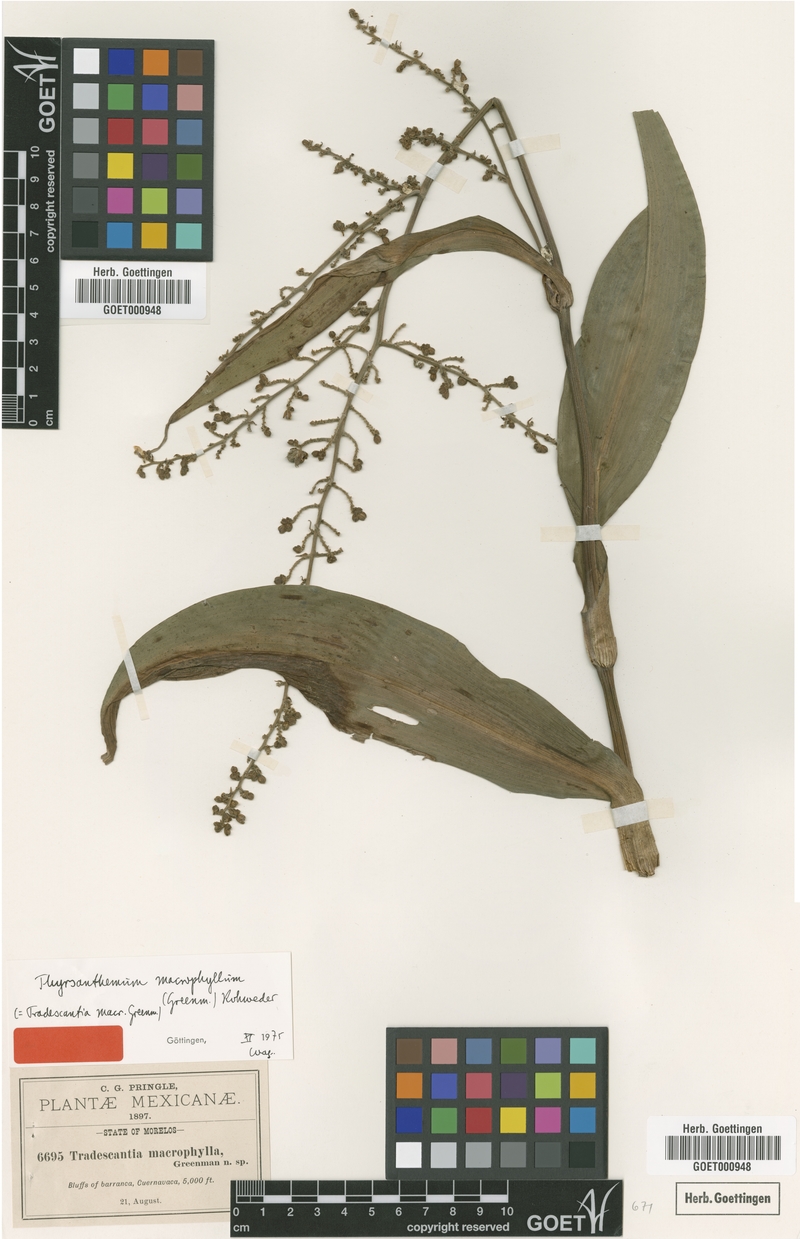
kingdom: Plantae
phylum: Tracheophyta
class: Liliopsida
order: Commelinales
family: Commelinaceae
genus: Thyrsanthemum
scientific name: Thyrsanthemum longifolium
